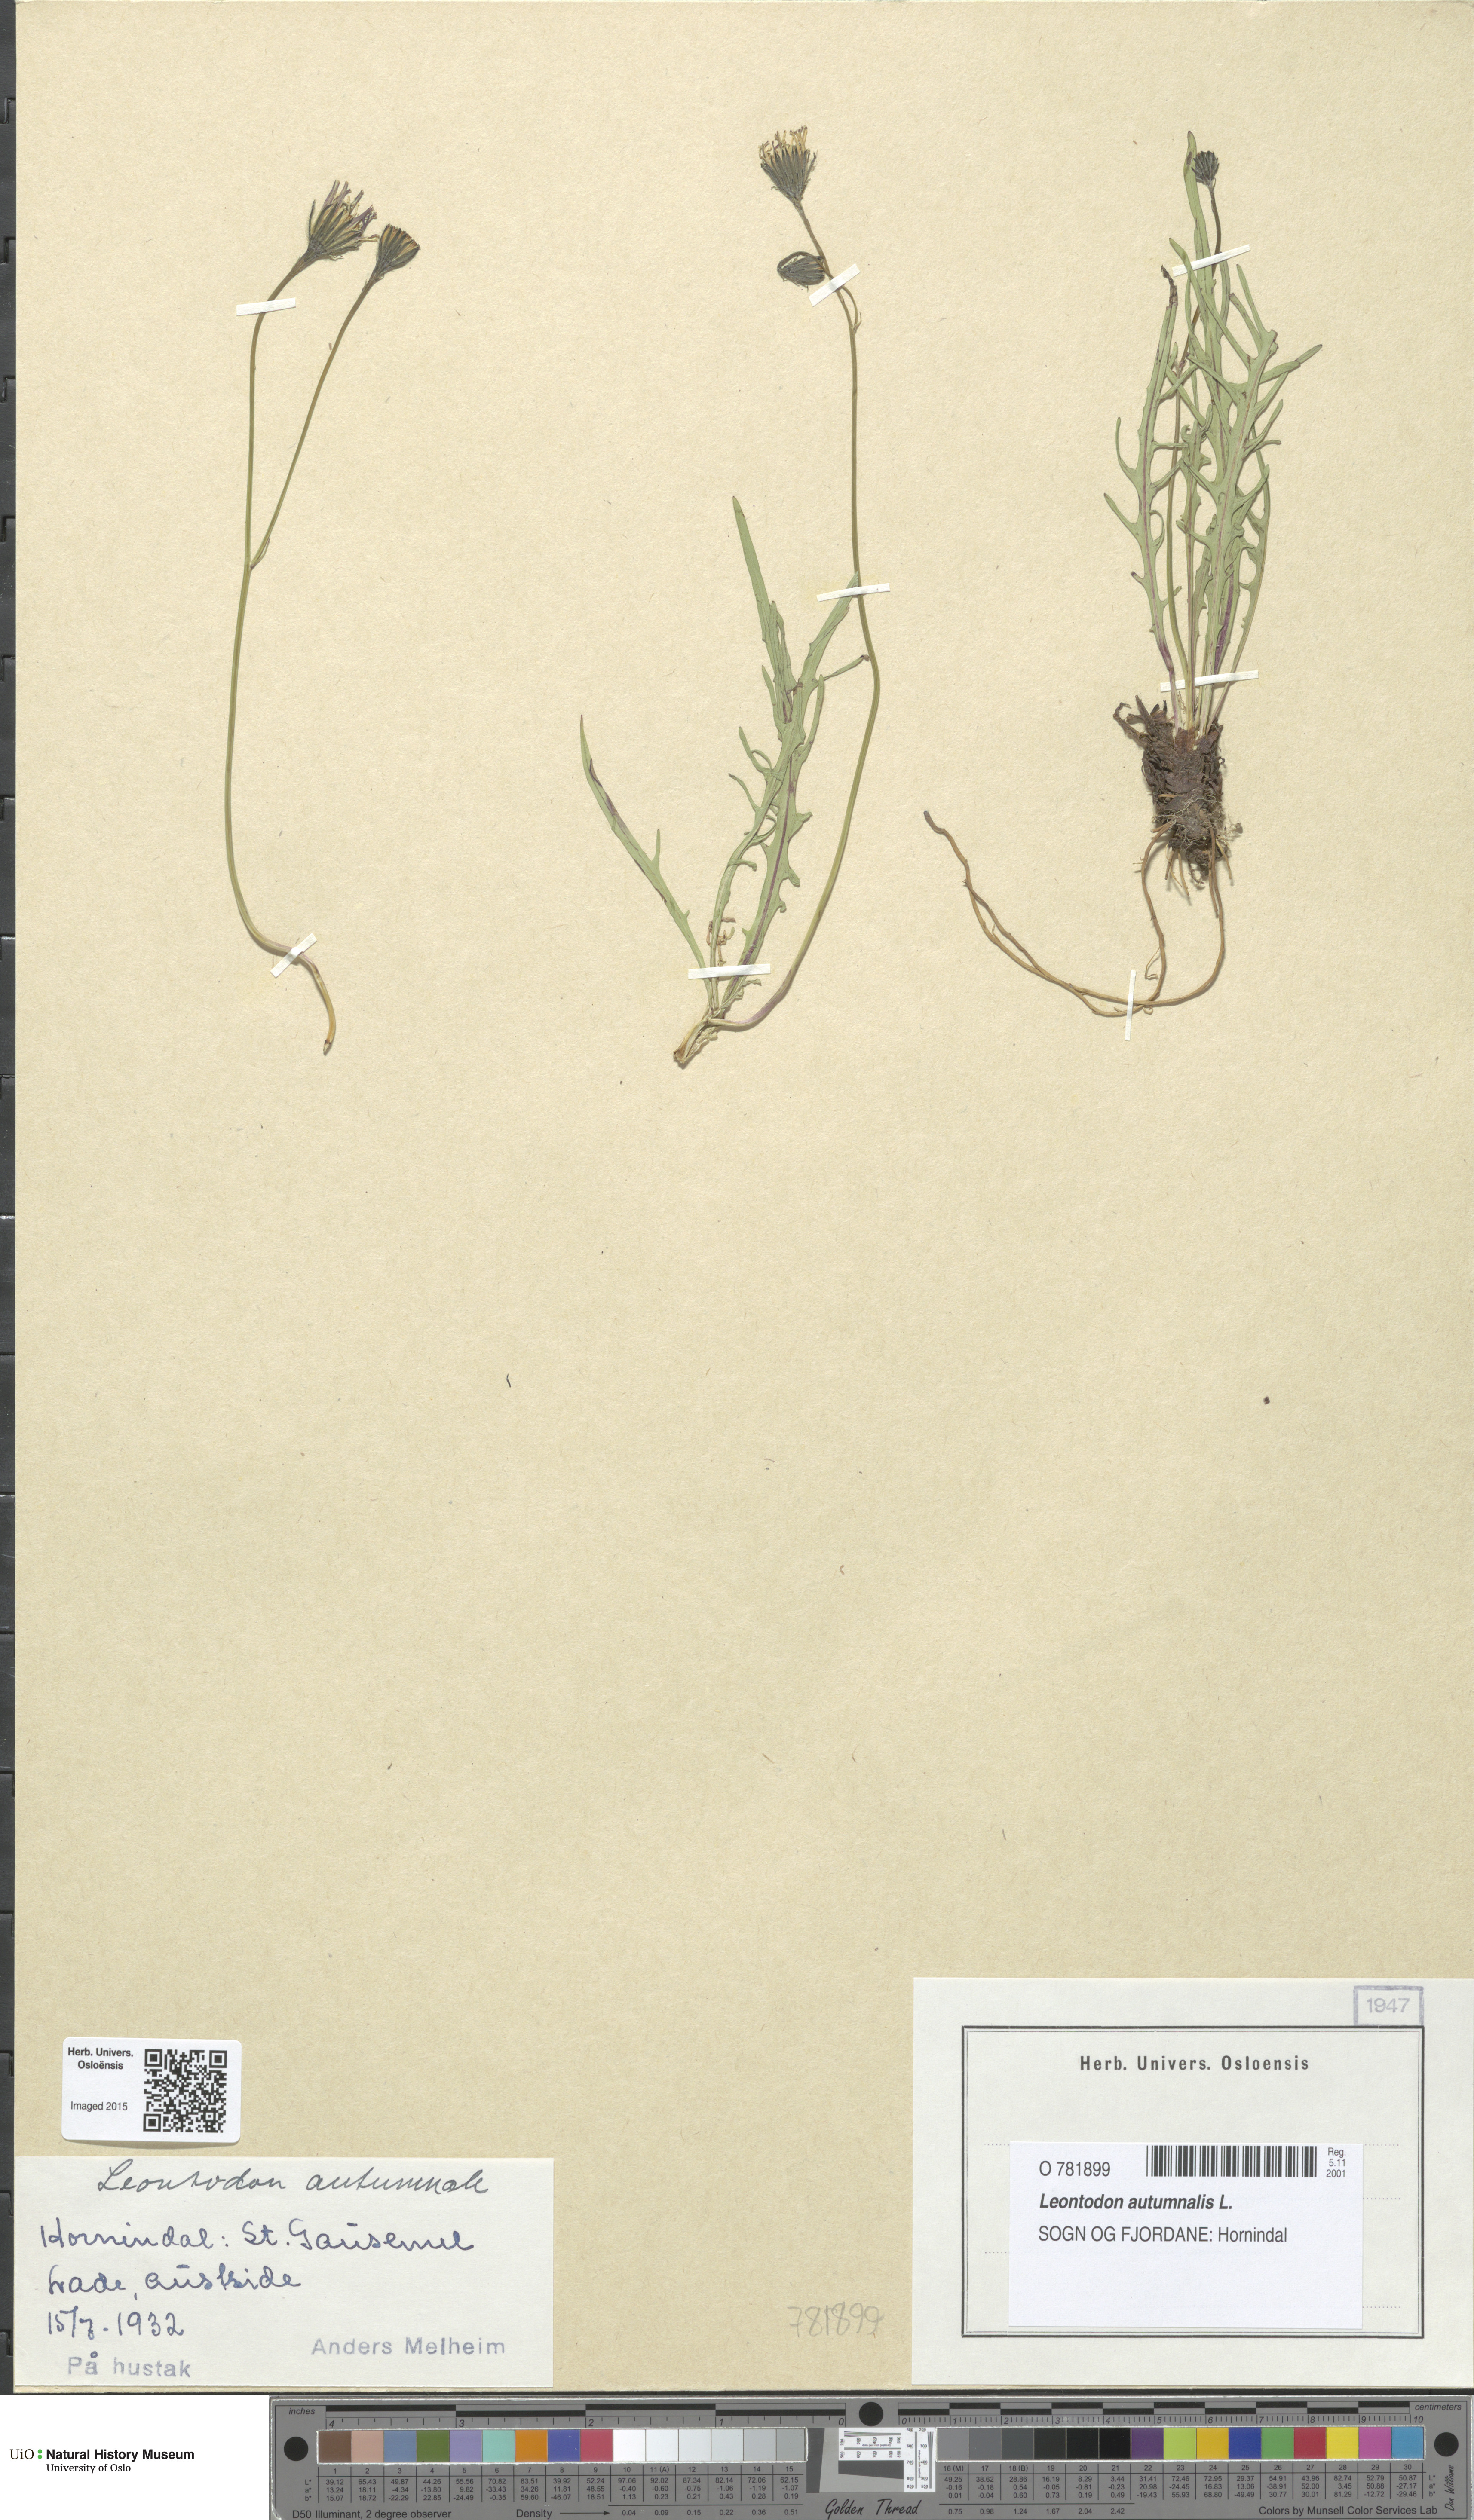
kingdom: Plantae
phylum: Tracheophyta
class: Magnoliopsida
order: Asterales
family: Asteraceae
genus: Scorzoneroides
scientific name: Scorzoneroides autumnalis
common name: Autumn hawkbit
